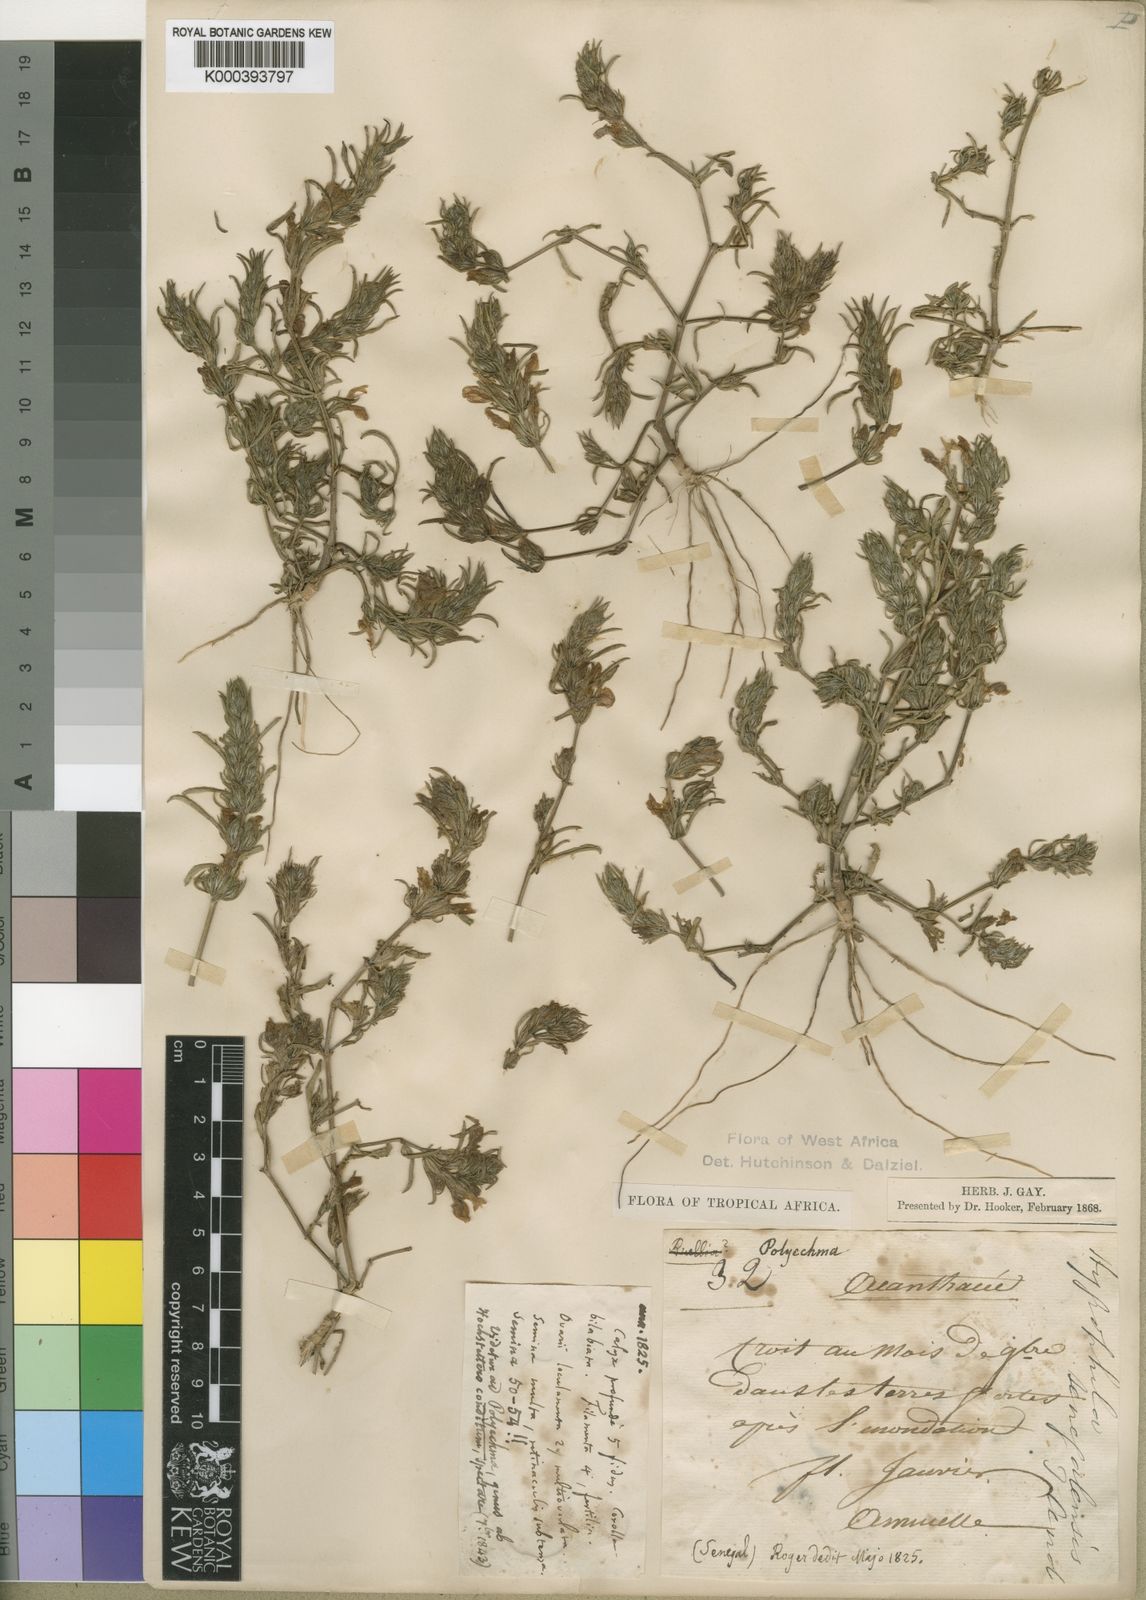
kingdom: Plantae
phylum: Tracheophyta
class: Magnoliopsida
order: Lamiales
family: Acanthaceae
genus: Hygrophila
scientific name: Hygrophila micrantha
